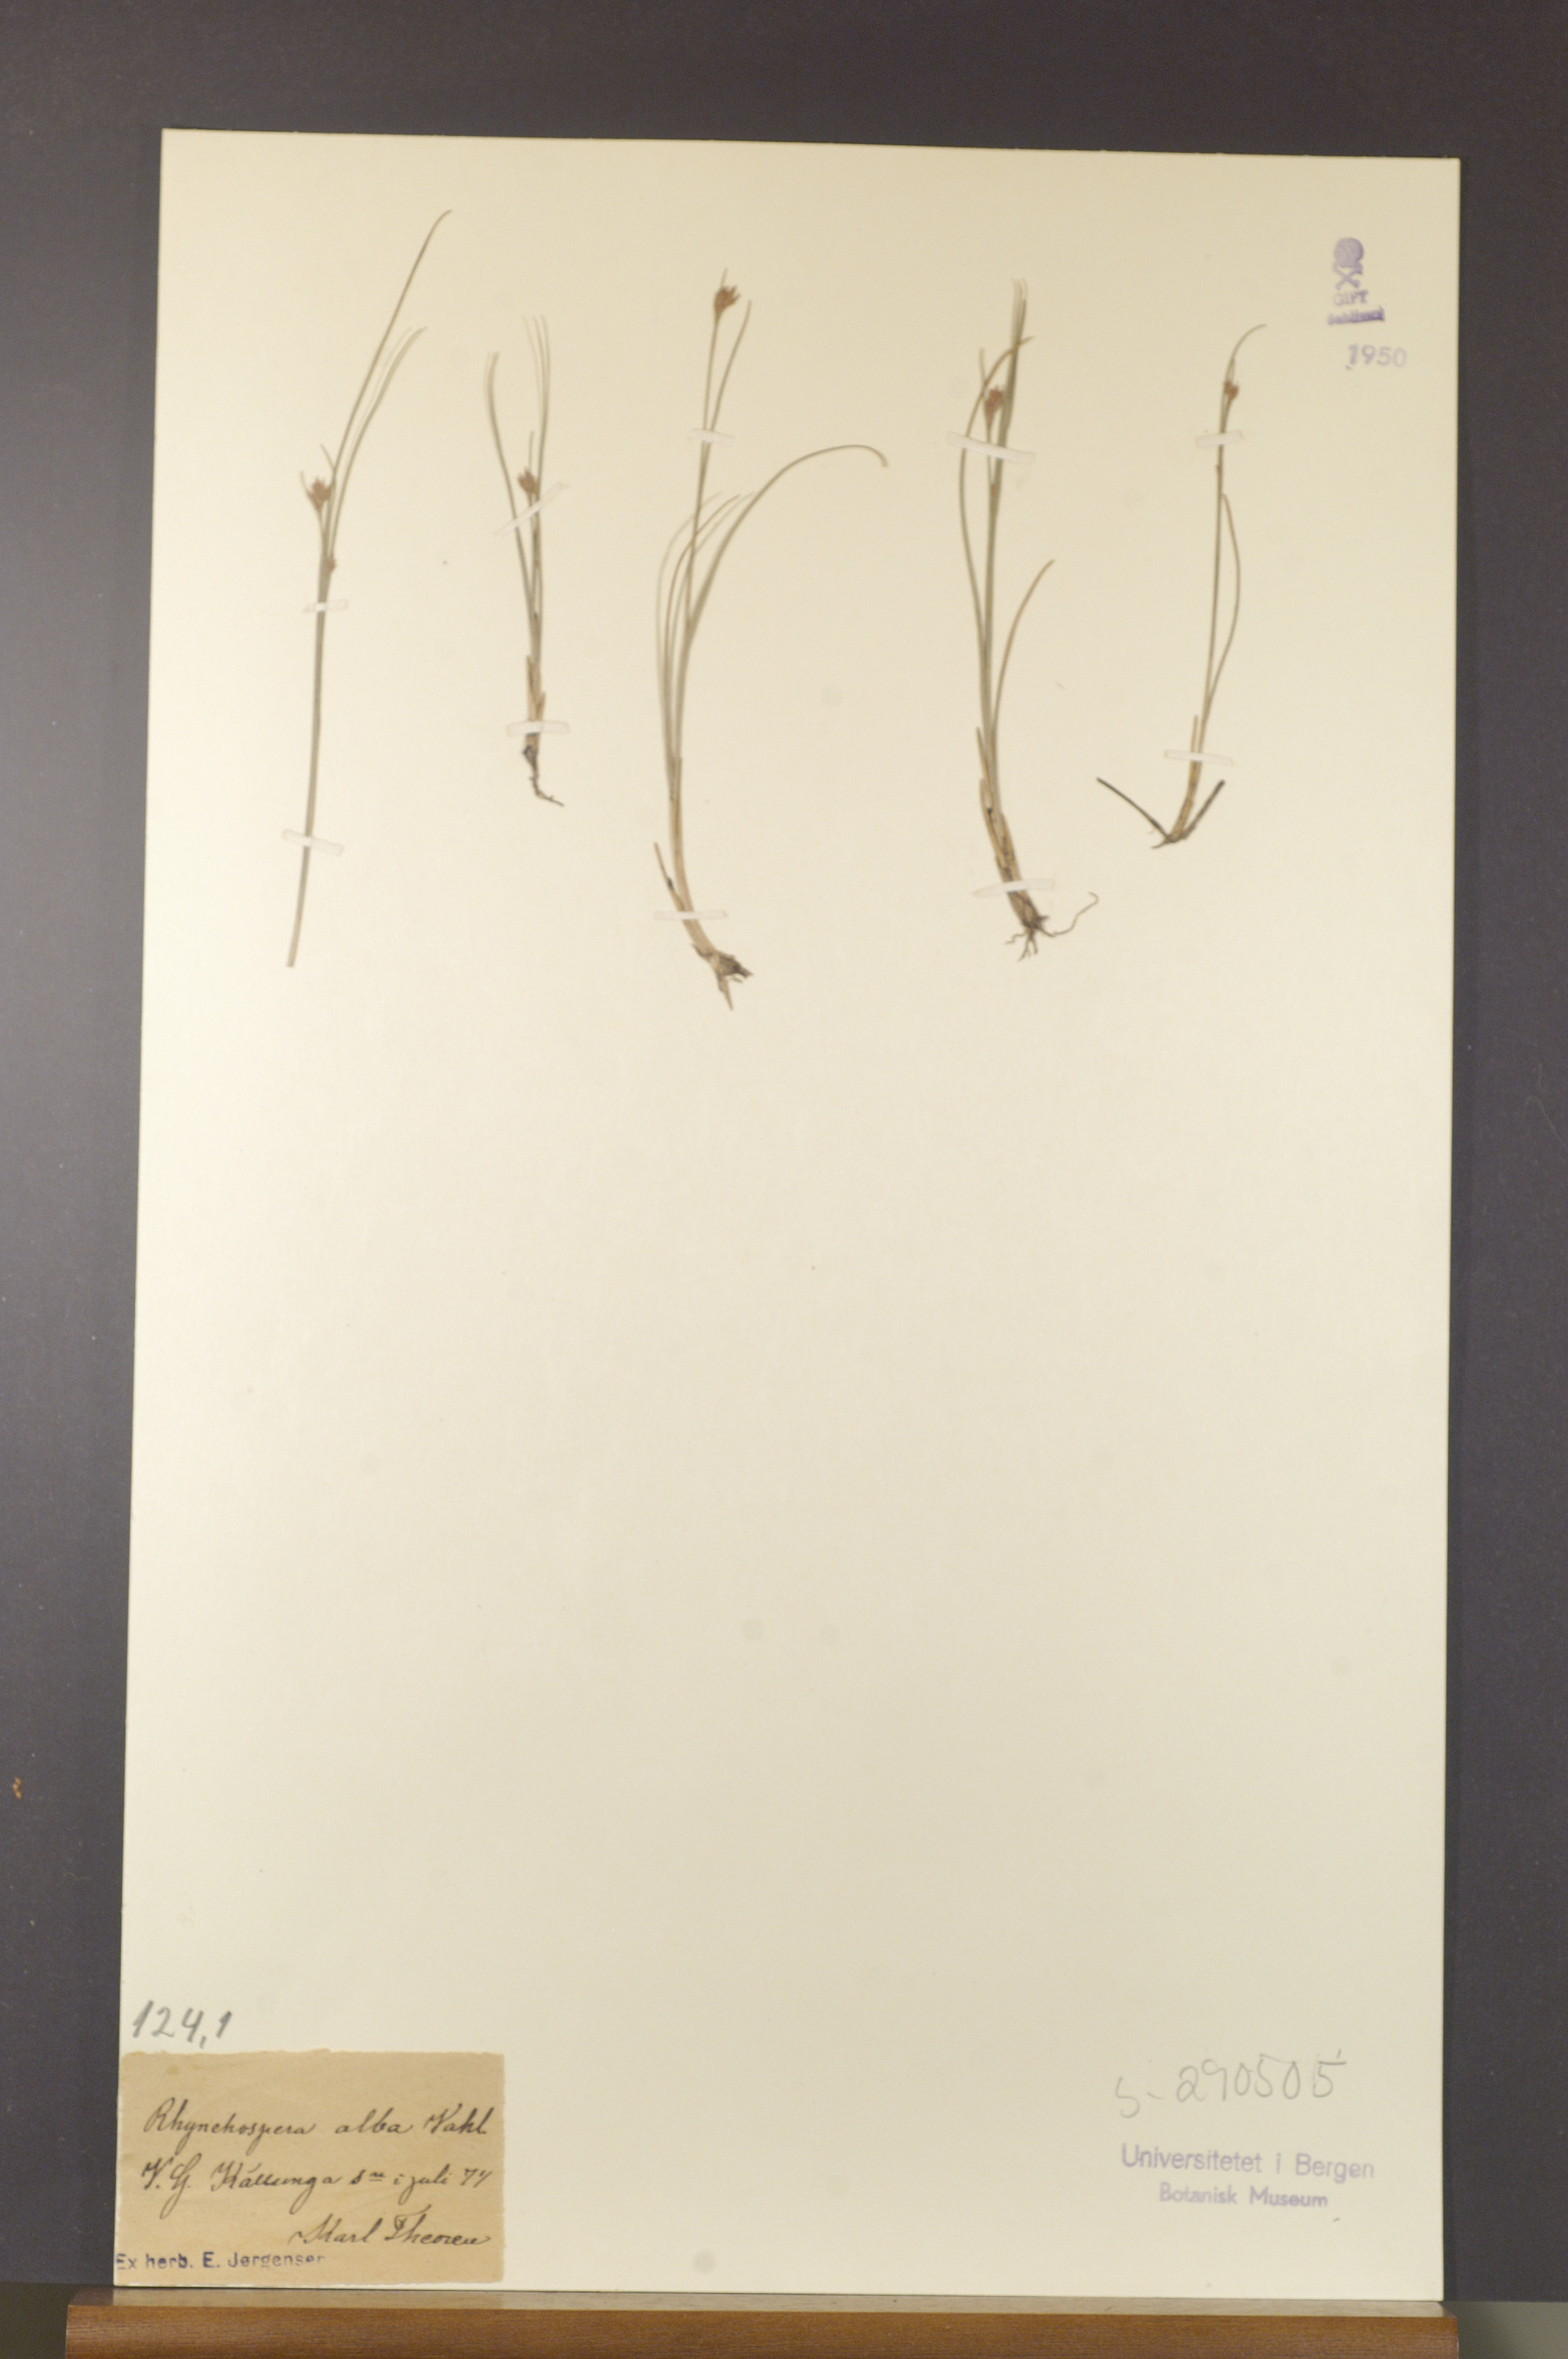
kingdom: Plantae
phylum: Tracheophyta
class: Liliopsida
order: Poales
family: Cyperaceae
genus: Rhynchospora
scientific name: Rhynchospora alba
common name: White beak-sedge
